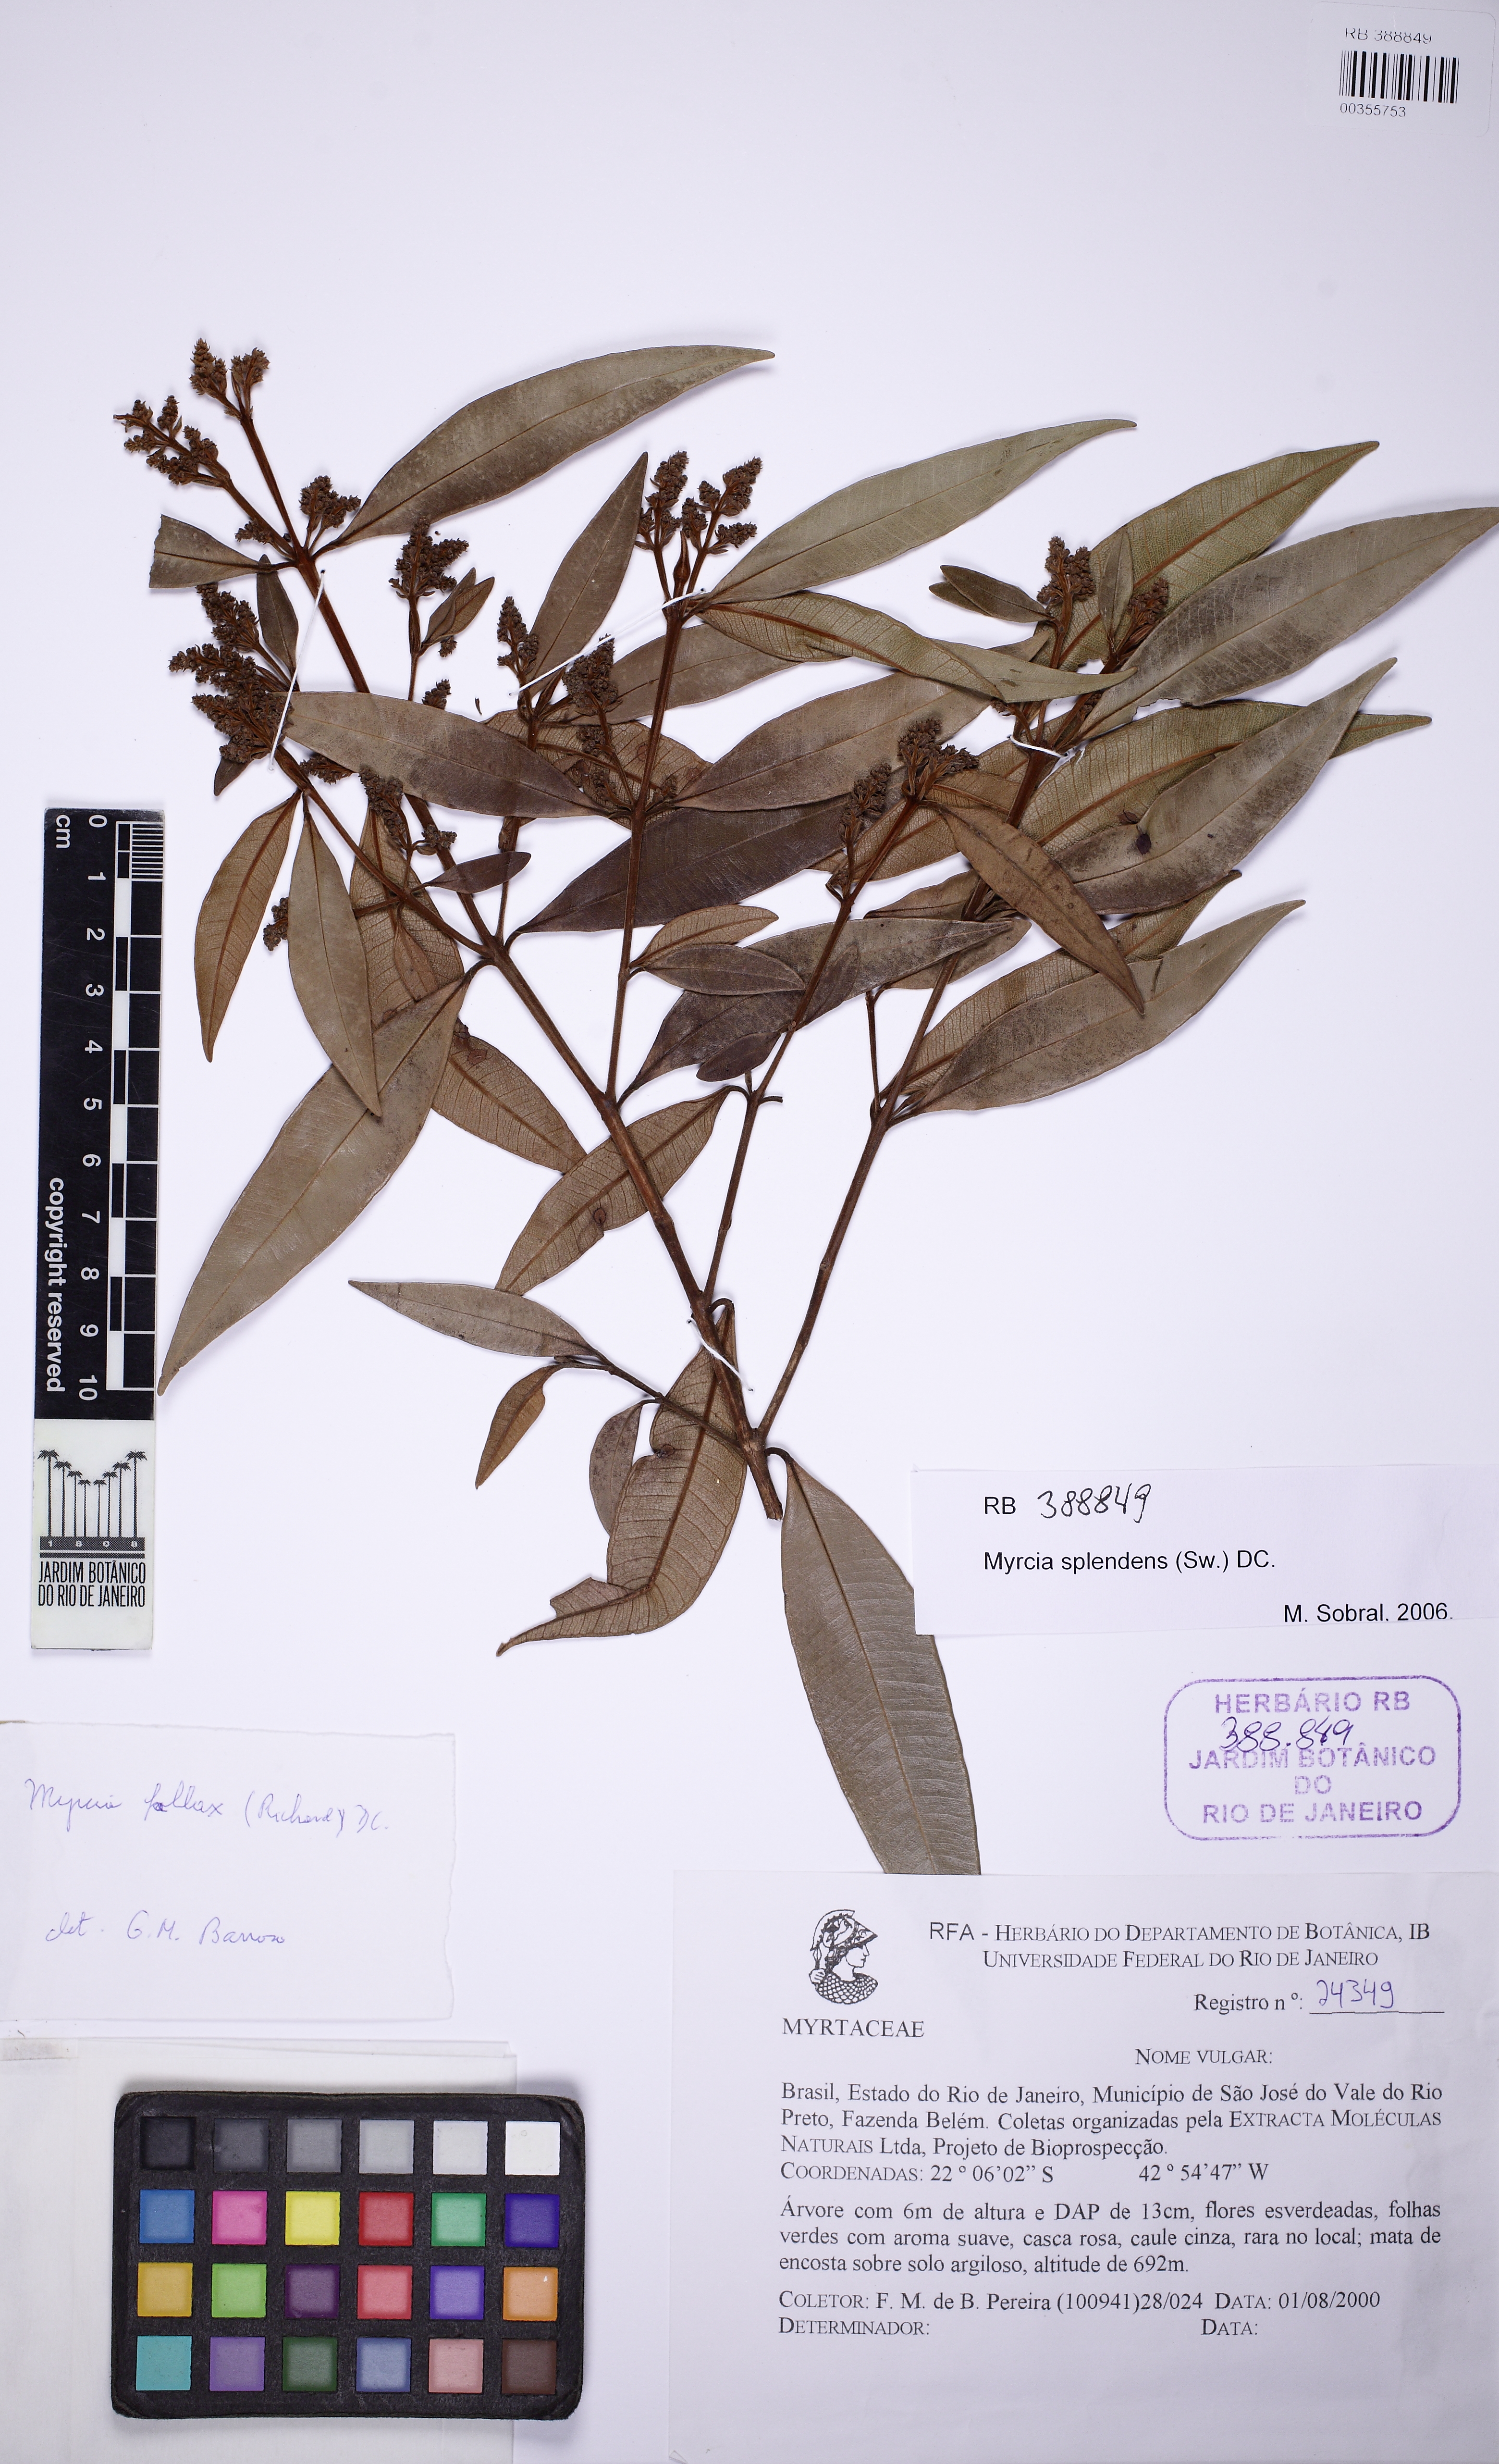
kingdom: Plantae
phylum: Tracheophyta
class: Magnoliopsida
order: Myrtales
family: Myrtaceae
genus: Myrcia
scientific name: Myrcia splendens
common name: Surinam cherry
